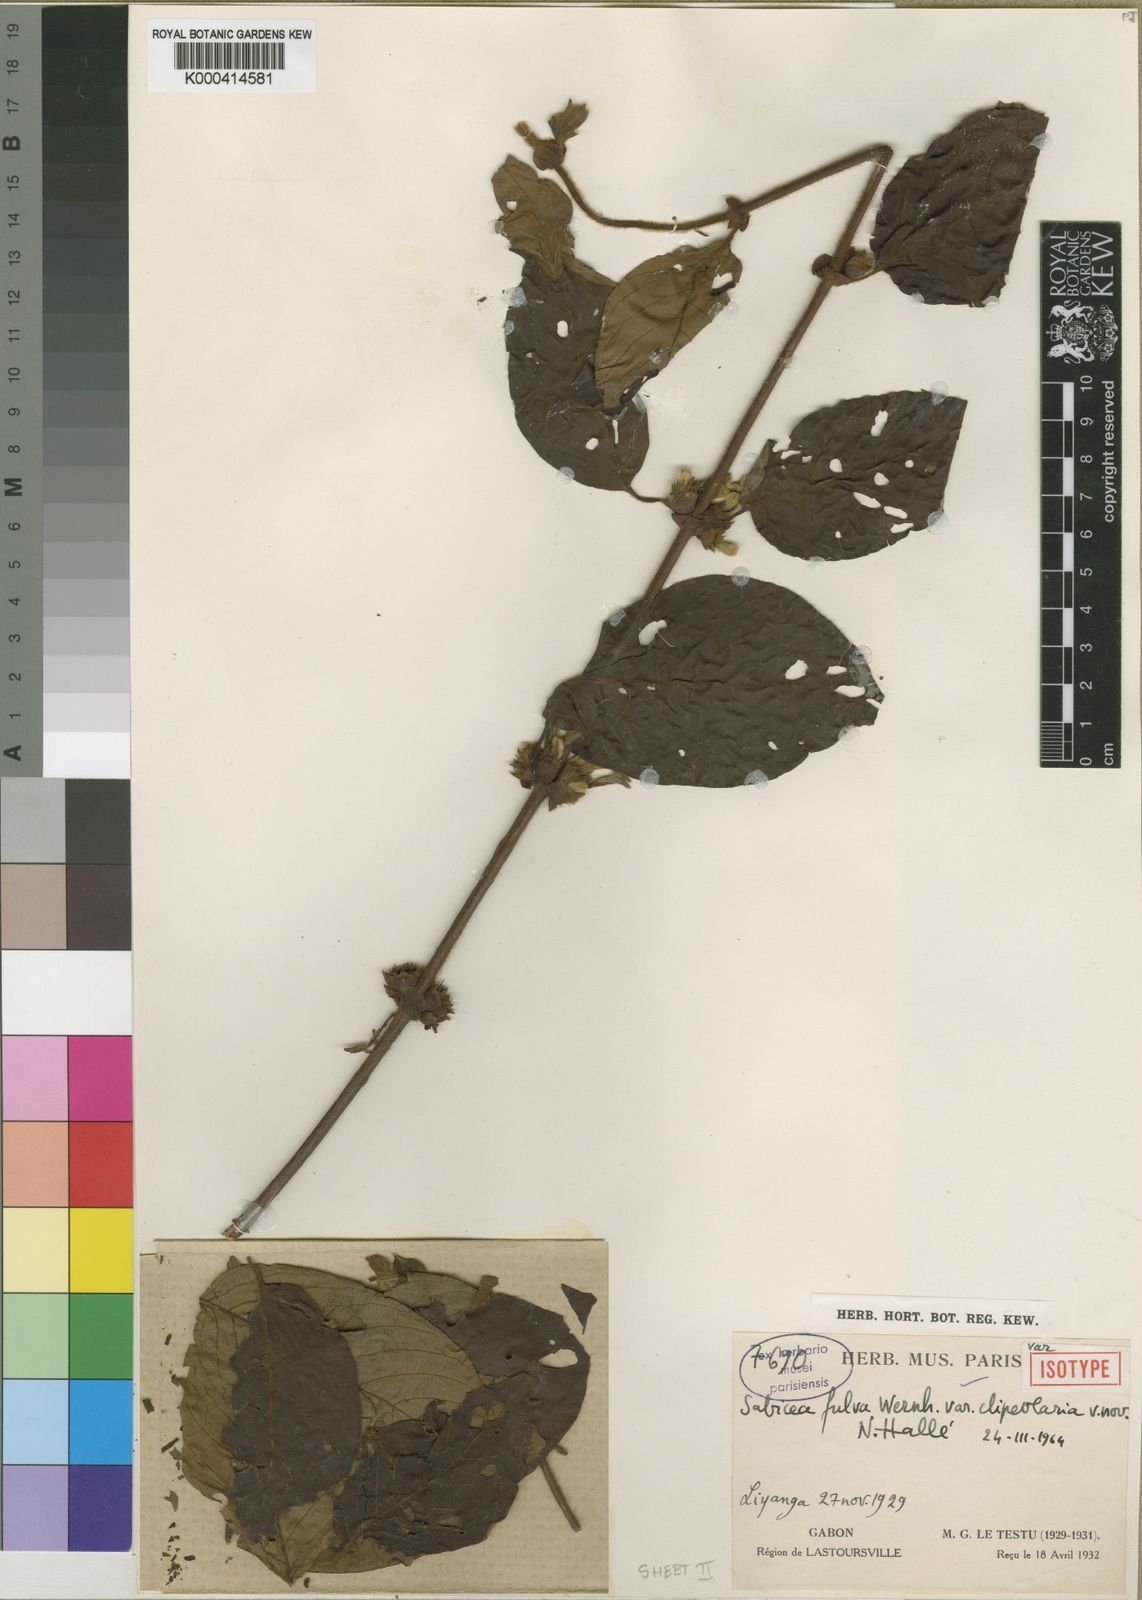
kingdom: Plantae
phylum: Tracheophyta
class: Magnoliopsida
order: Gentianales
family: Rubiaceae
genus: Sabicea
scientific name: Sabicea fulva
